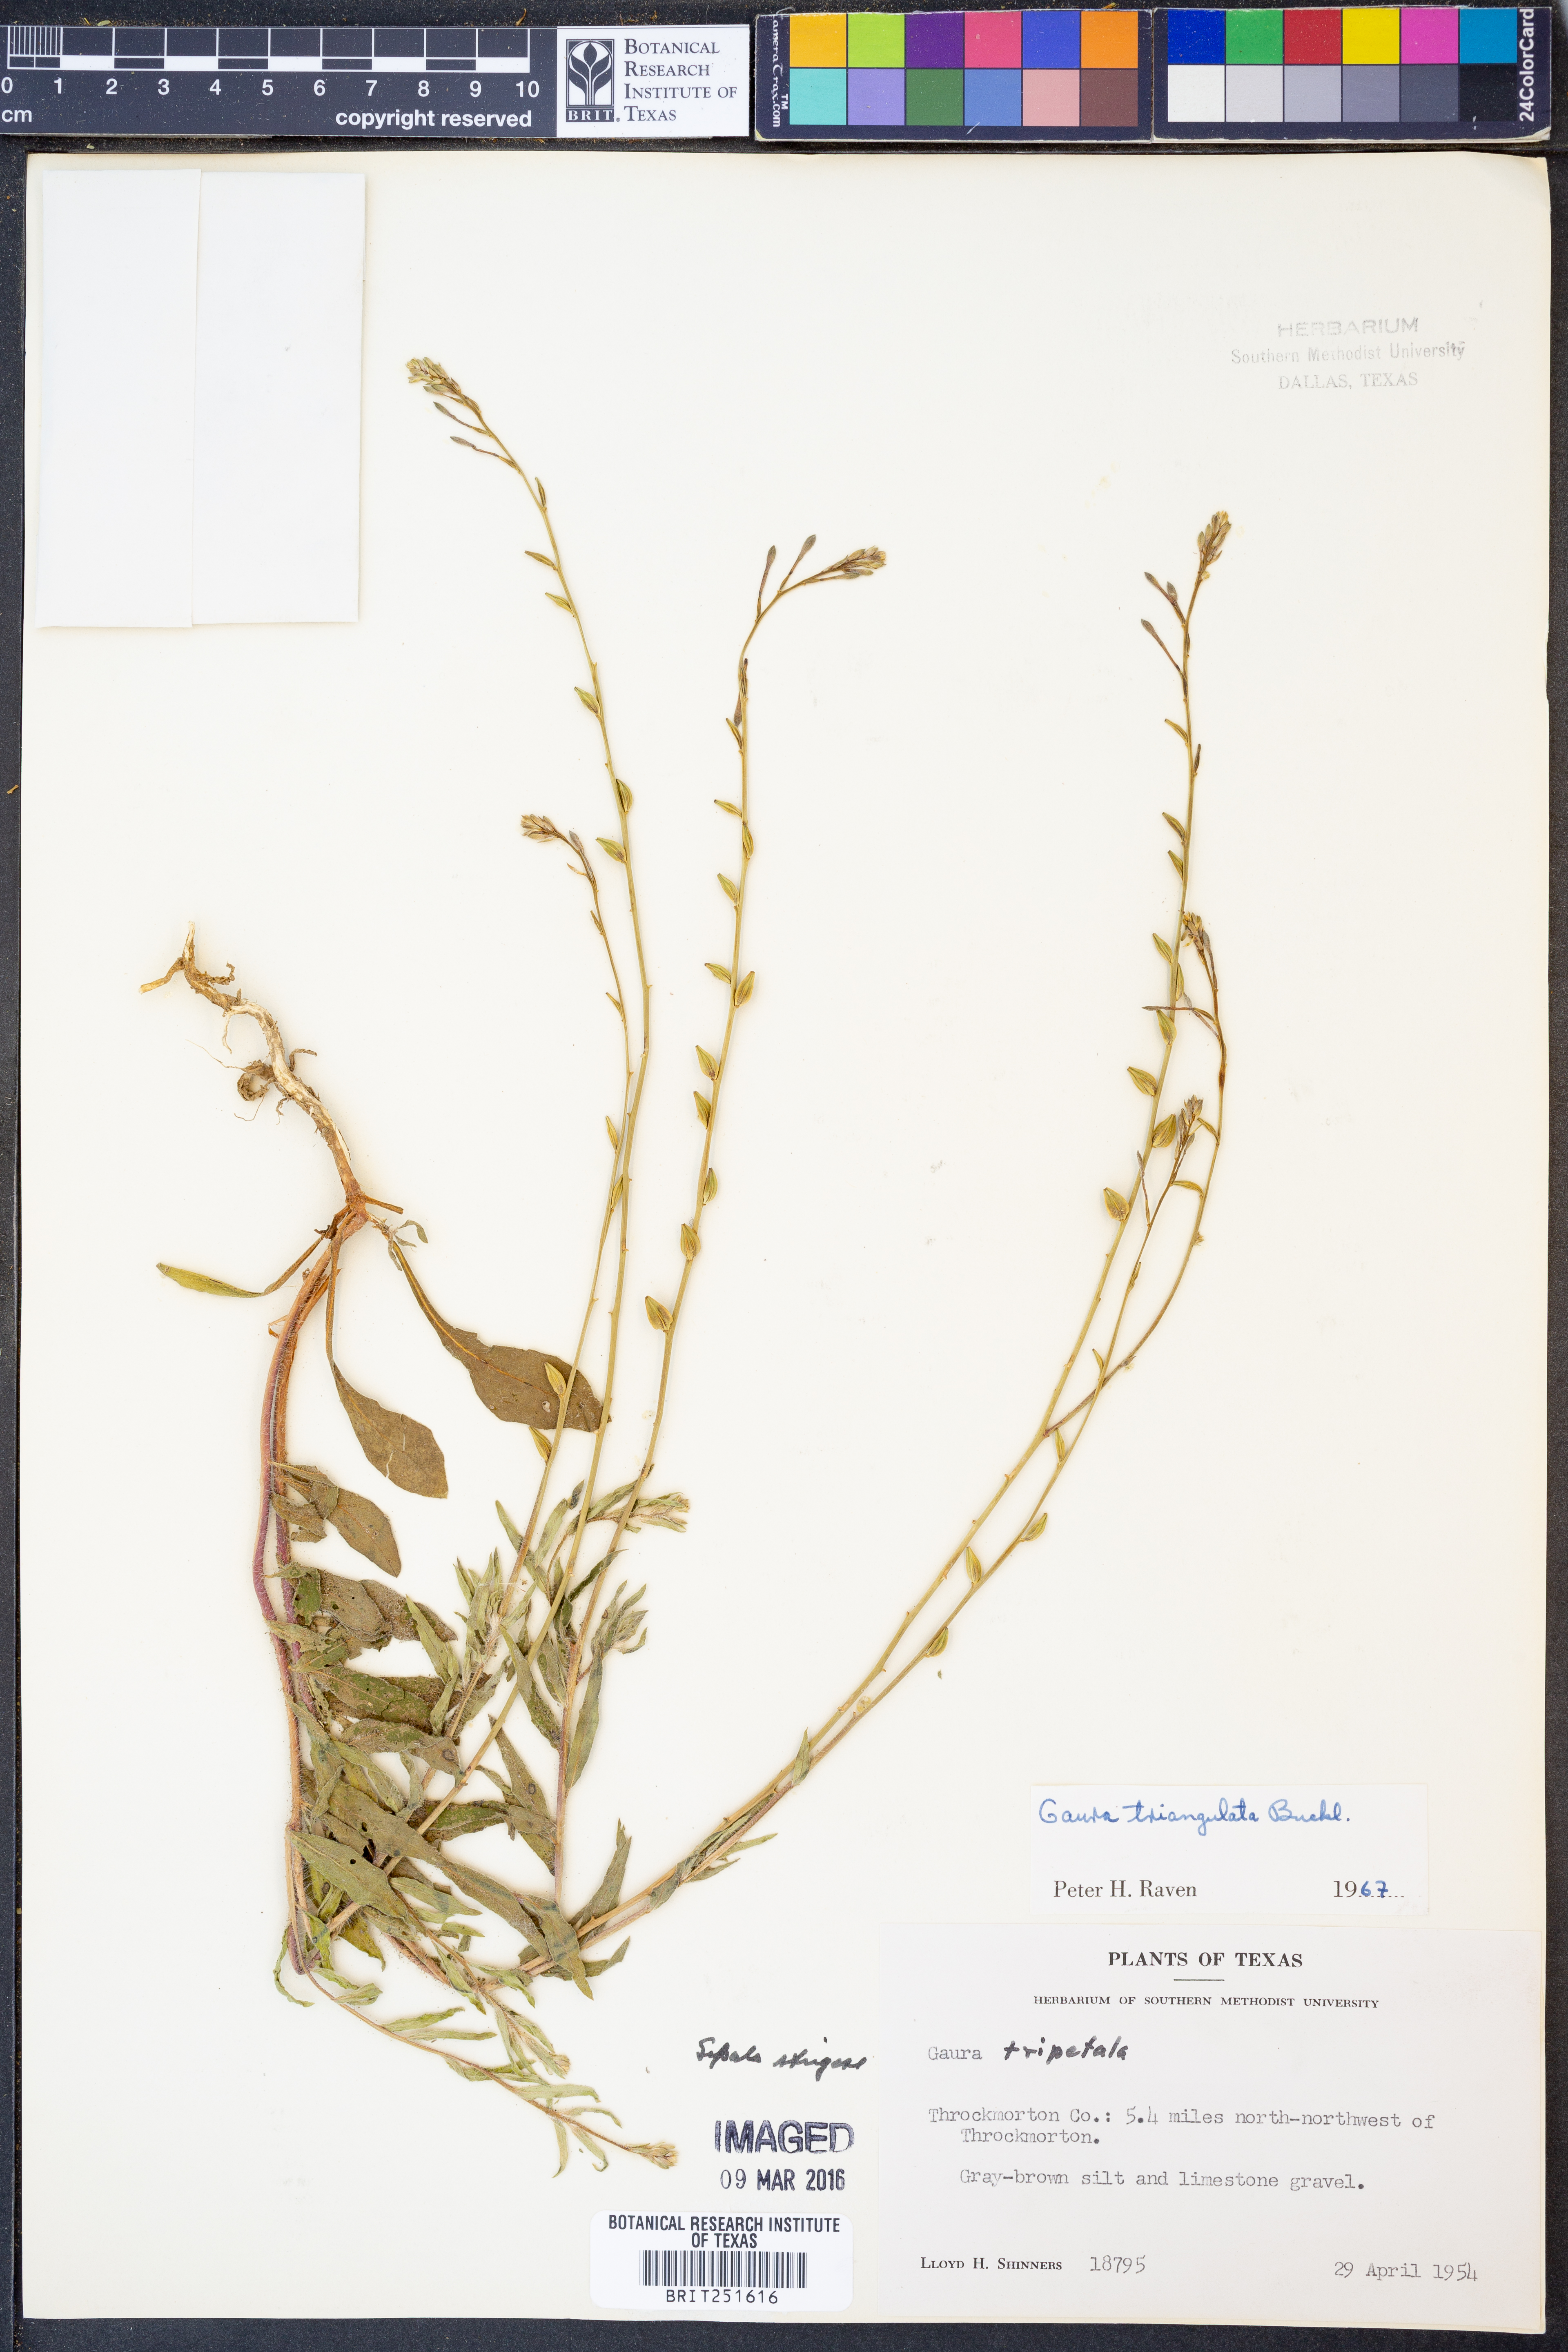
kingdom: Plantae
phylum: Tracheophyta
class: Magnoliopsida
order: Myrtales
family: Onagraceae
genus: Oenothera
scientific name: Oenothera triangulata
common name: Prairie beeblossom
